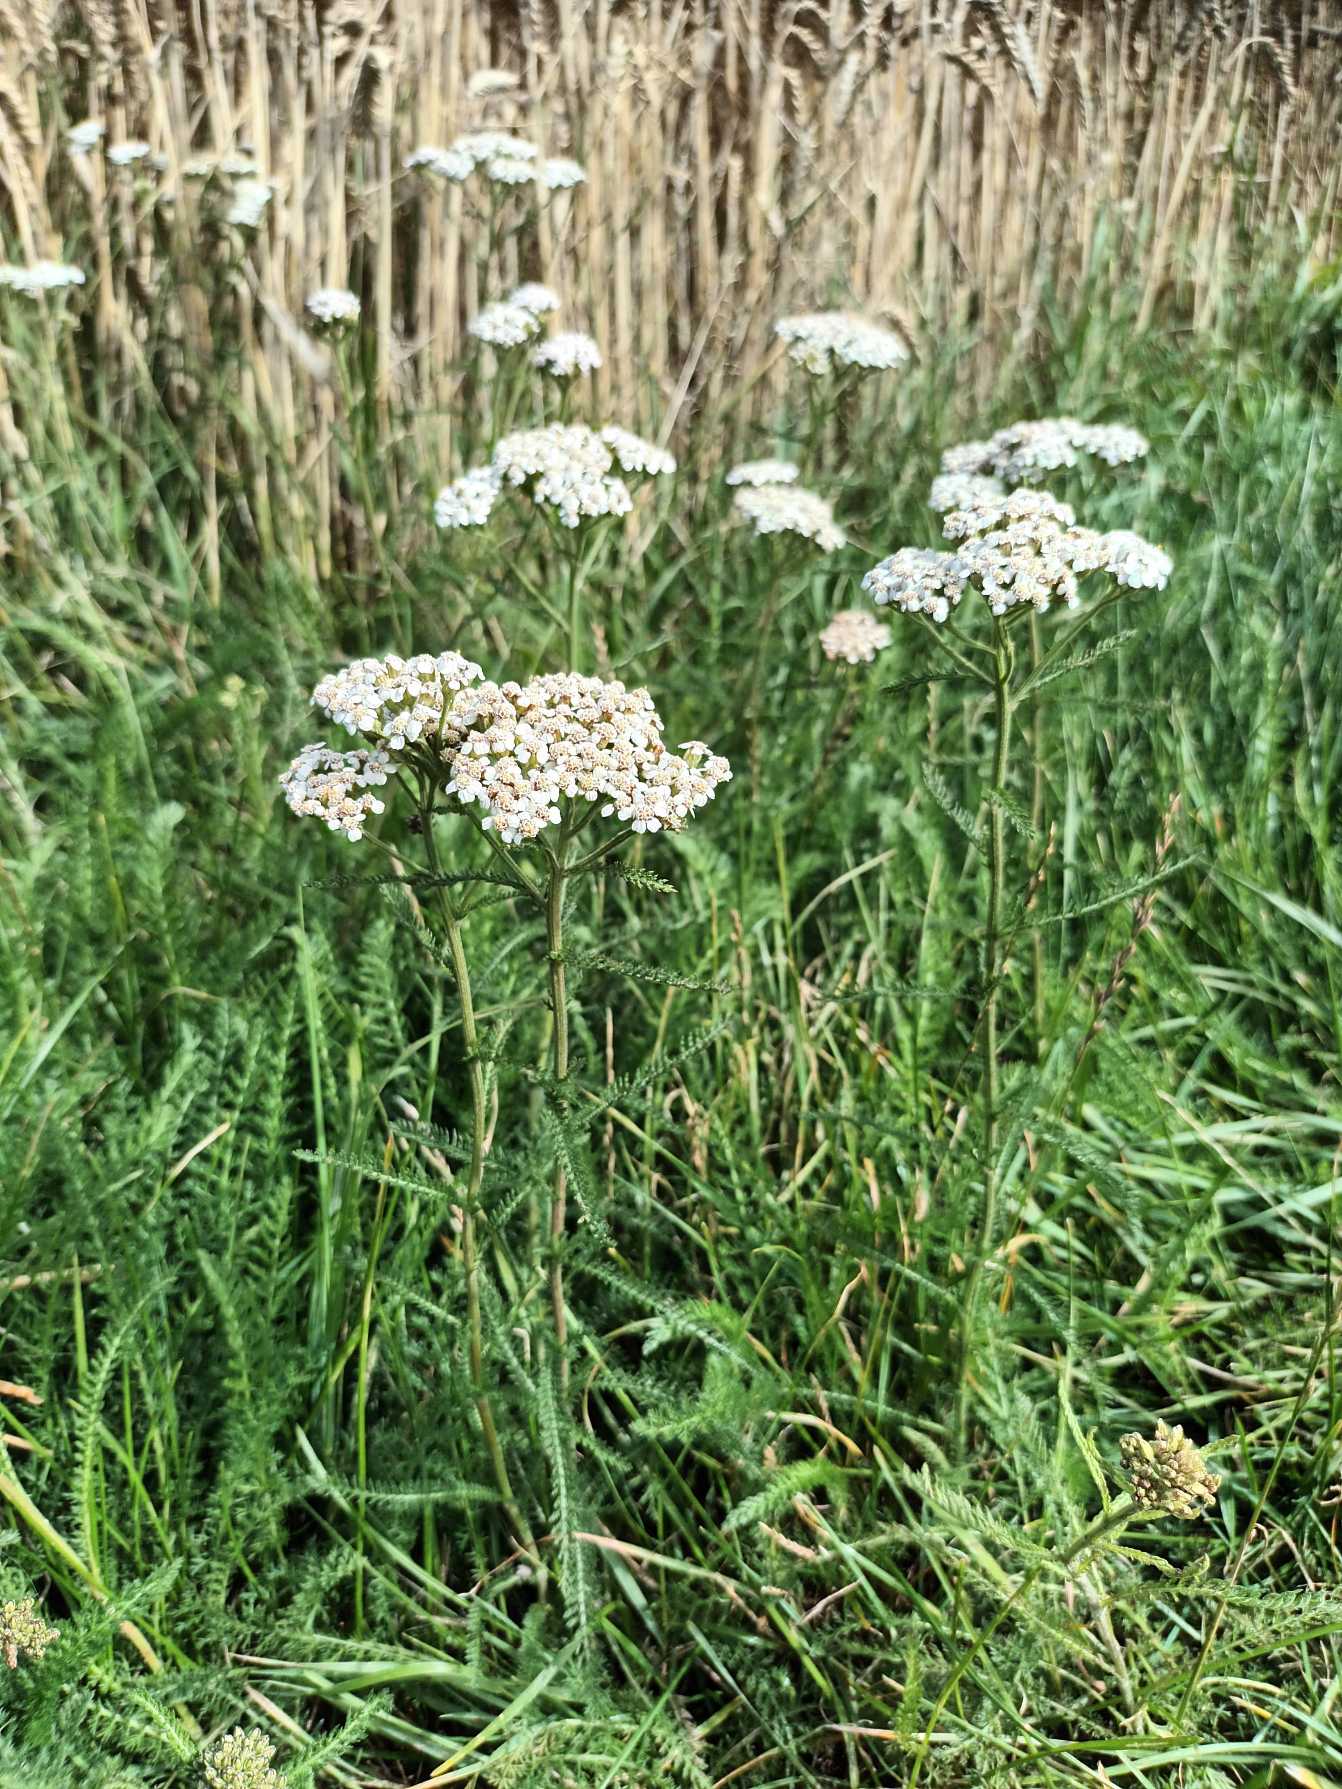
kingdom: Plantae
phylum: Tracheophyta
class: Magnoliopsida
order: Asterales
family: Asteraceae
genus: Achillea
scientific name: Achillea millefolium
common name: Almindelig røllike
